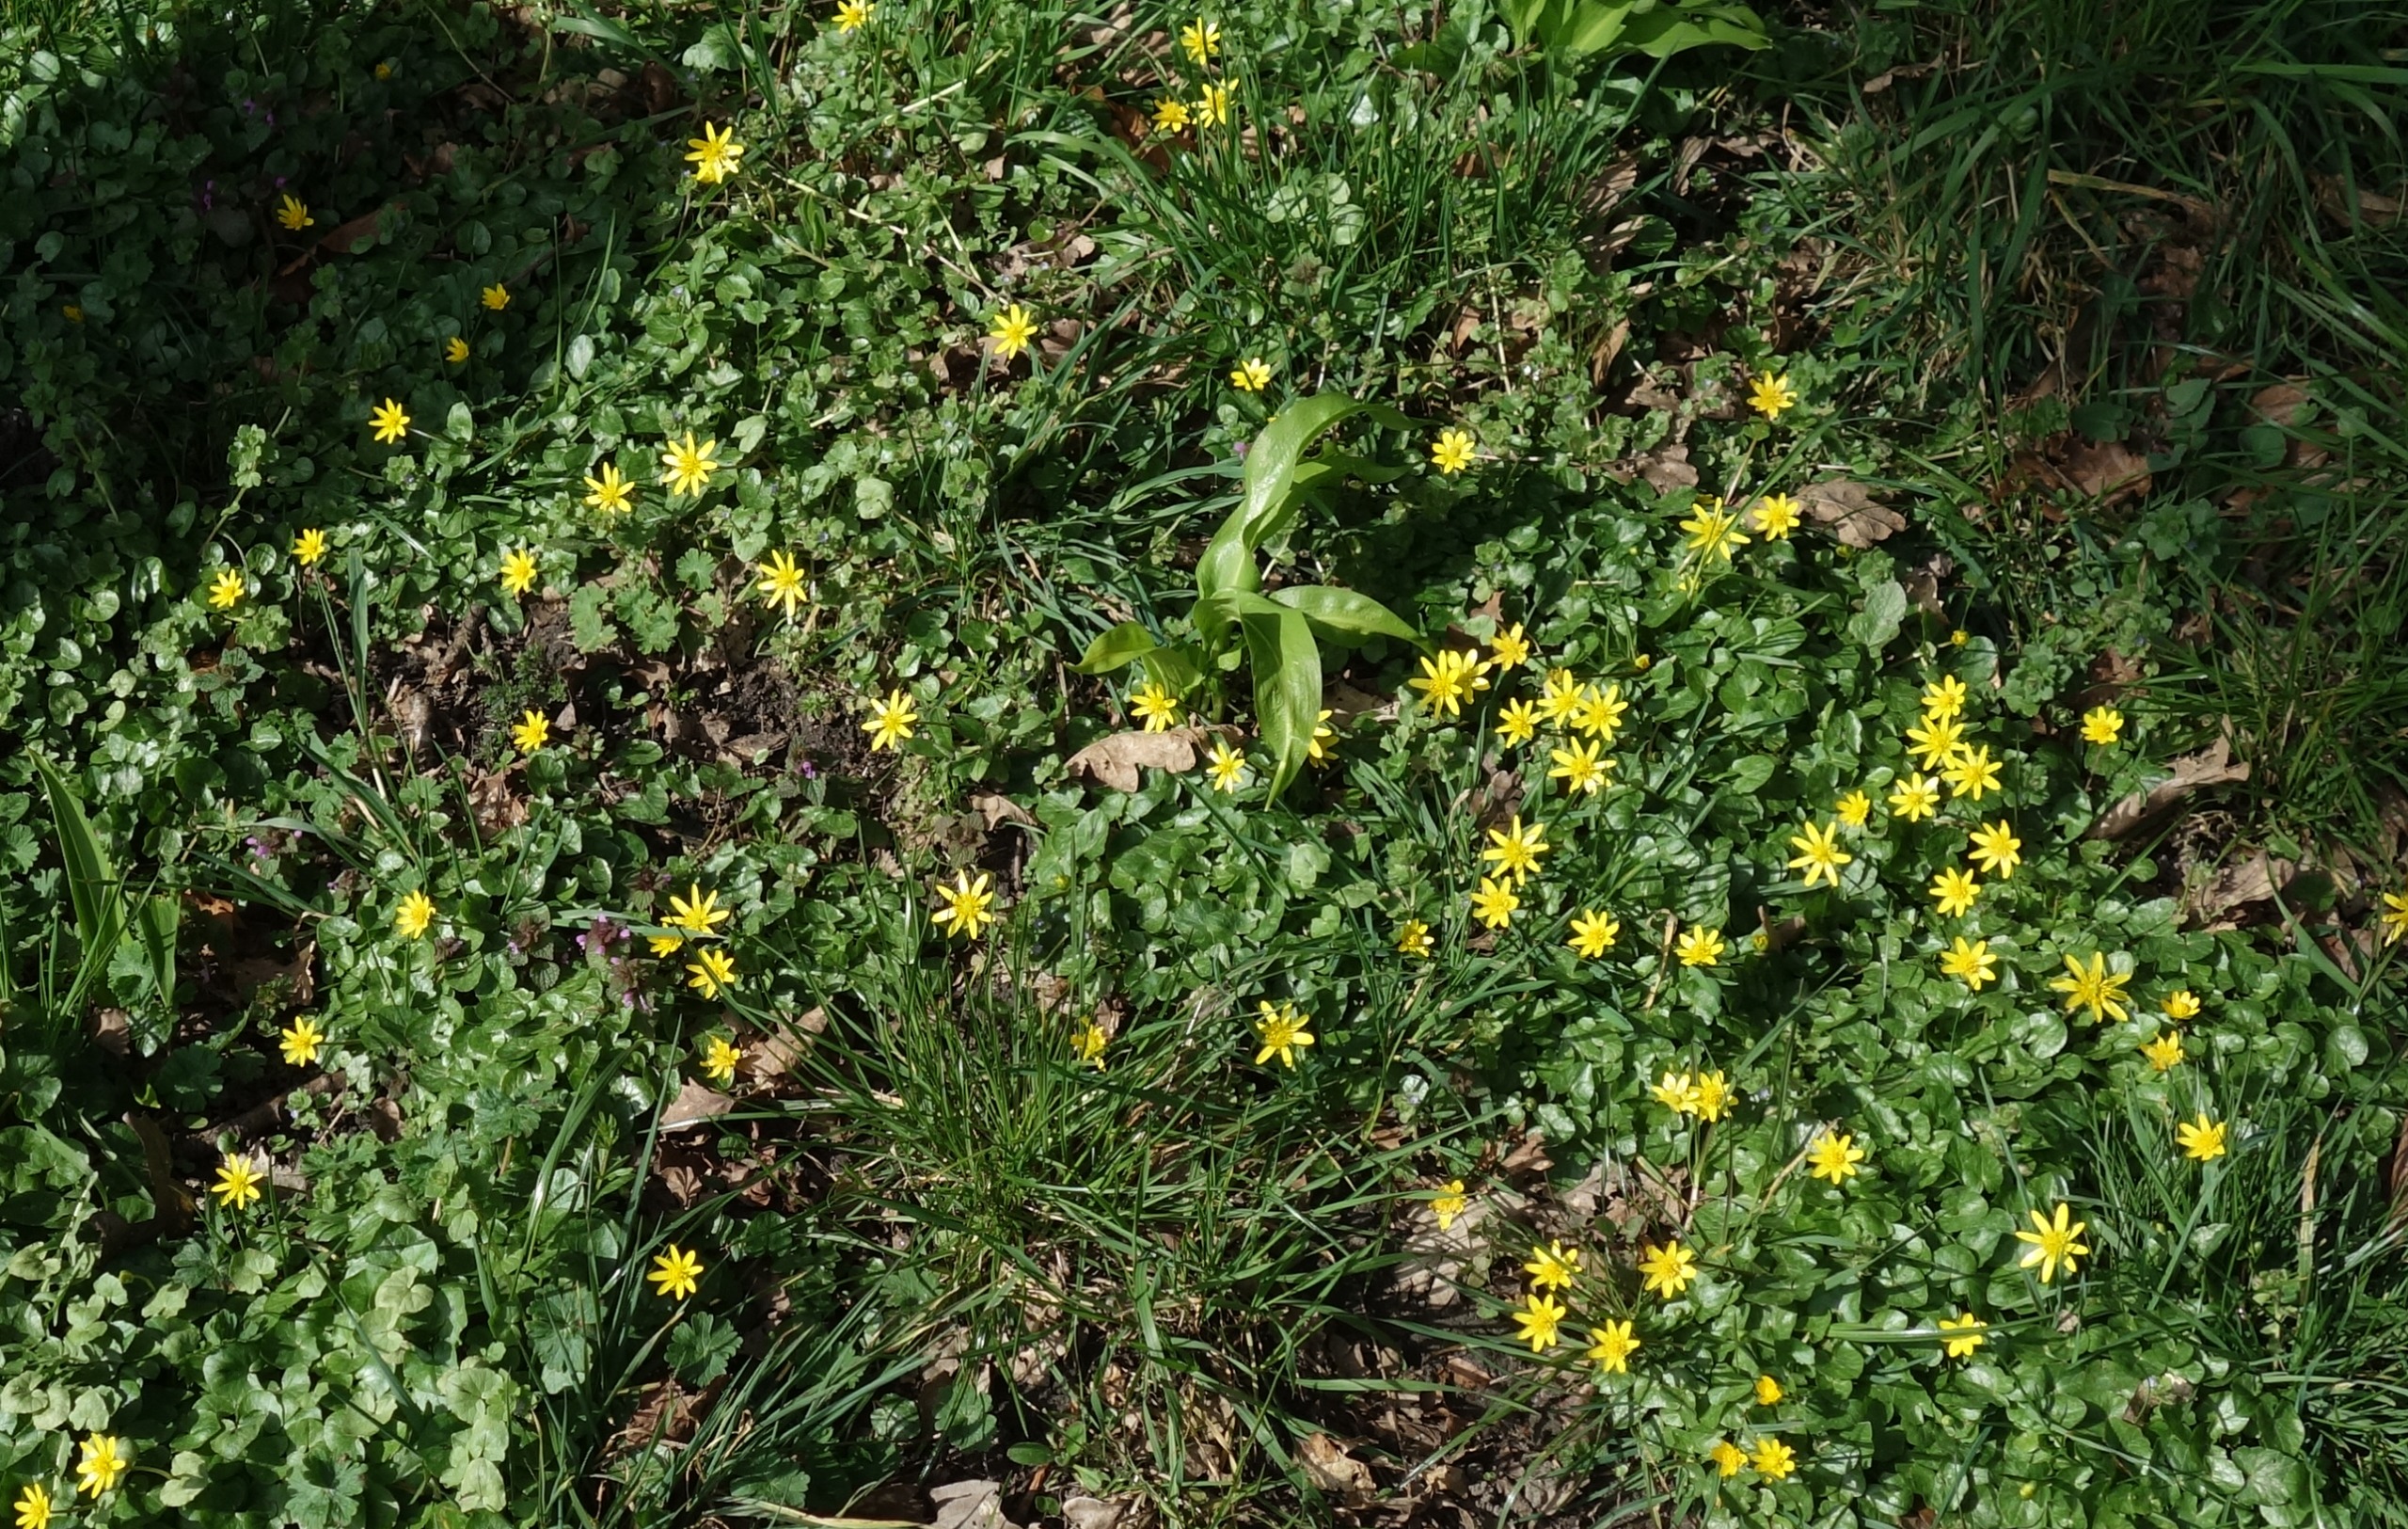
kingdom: Plantae
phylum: Tracheophyta
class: Magnoliopsida
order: Ranunculales
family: Ranunculaceae
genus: Ficaria
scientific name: Ficaria verna
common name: Vorterod
